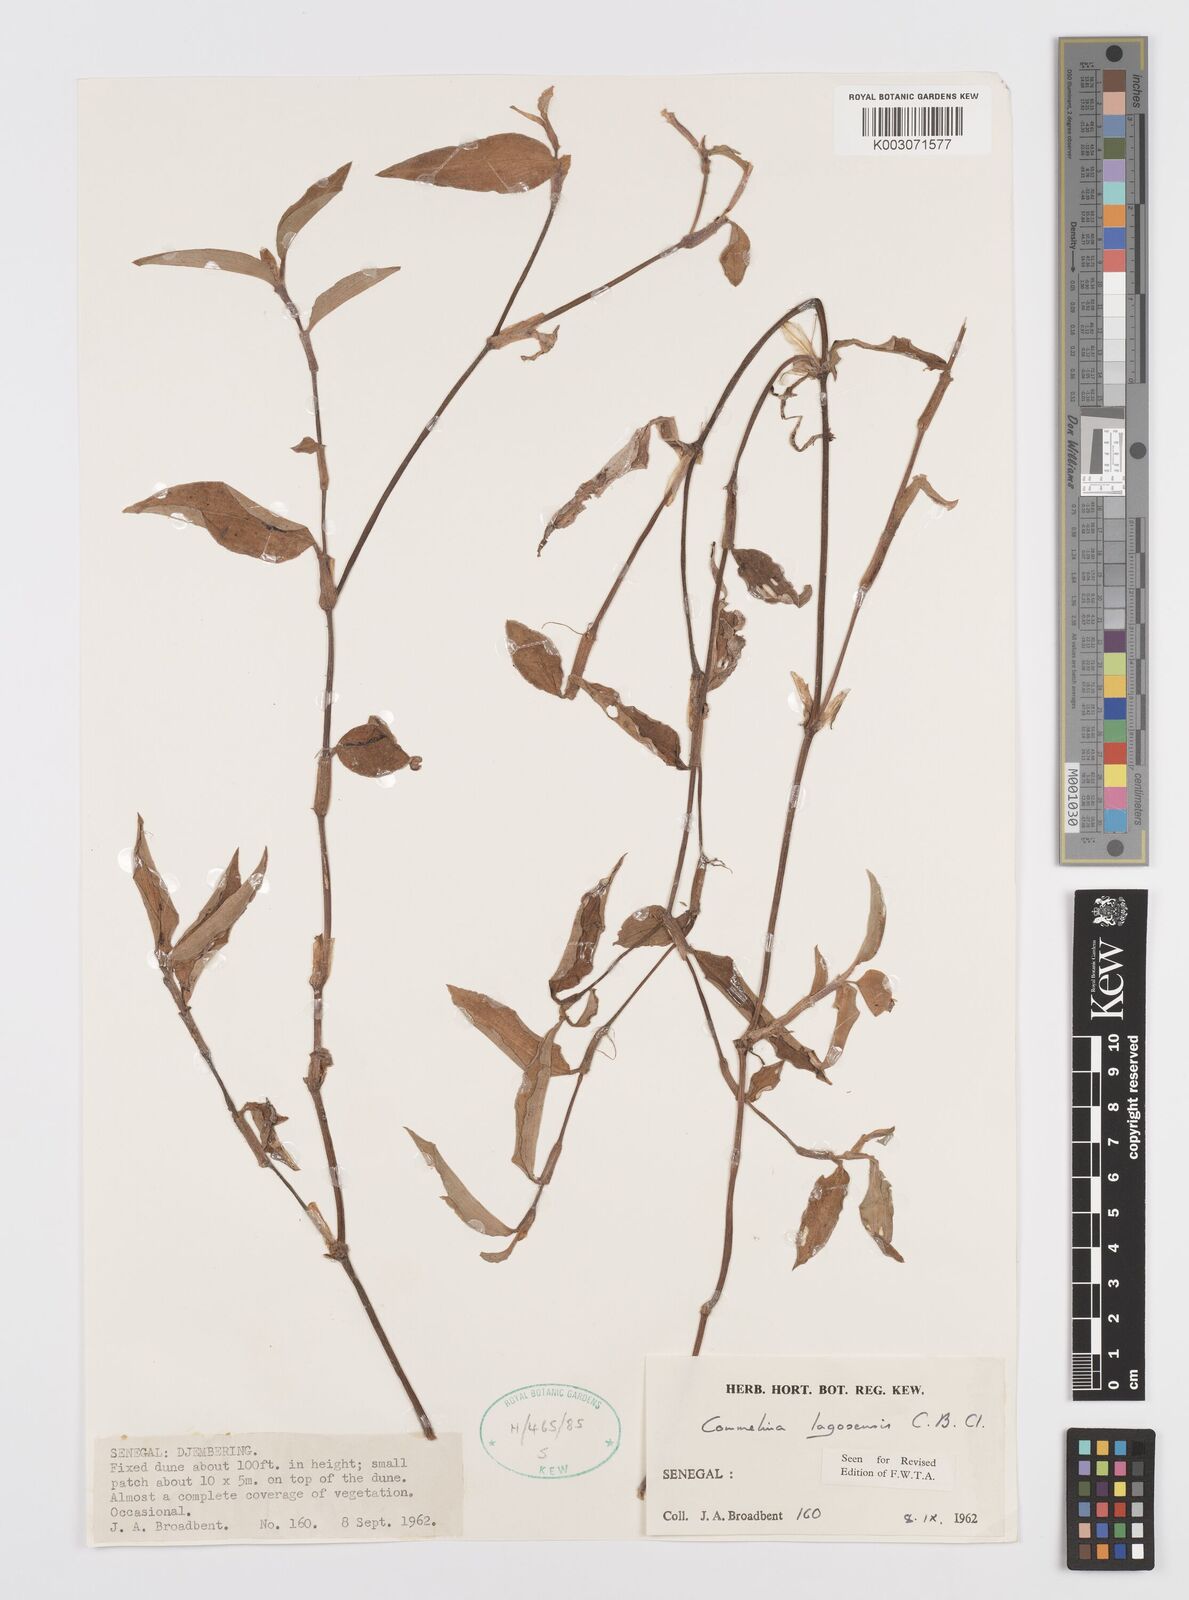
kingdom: Plantae
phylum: Tracheophyta
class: Liliopsida
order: Commelinales
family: Commelinaceae
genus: Commelina
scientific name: Commelina bracteosa
